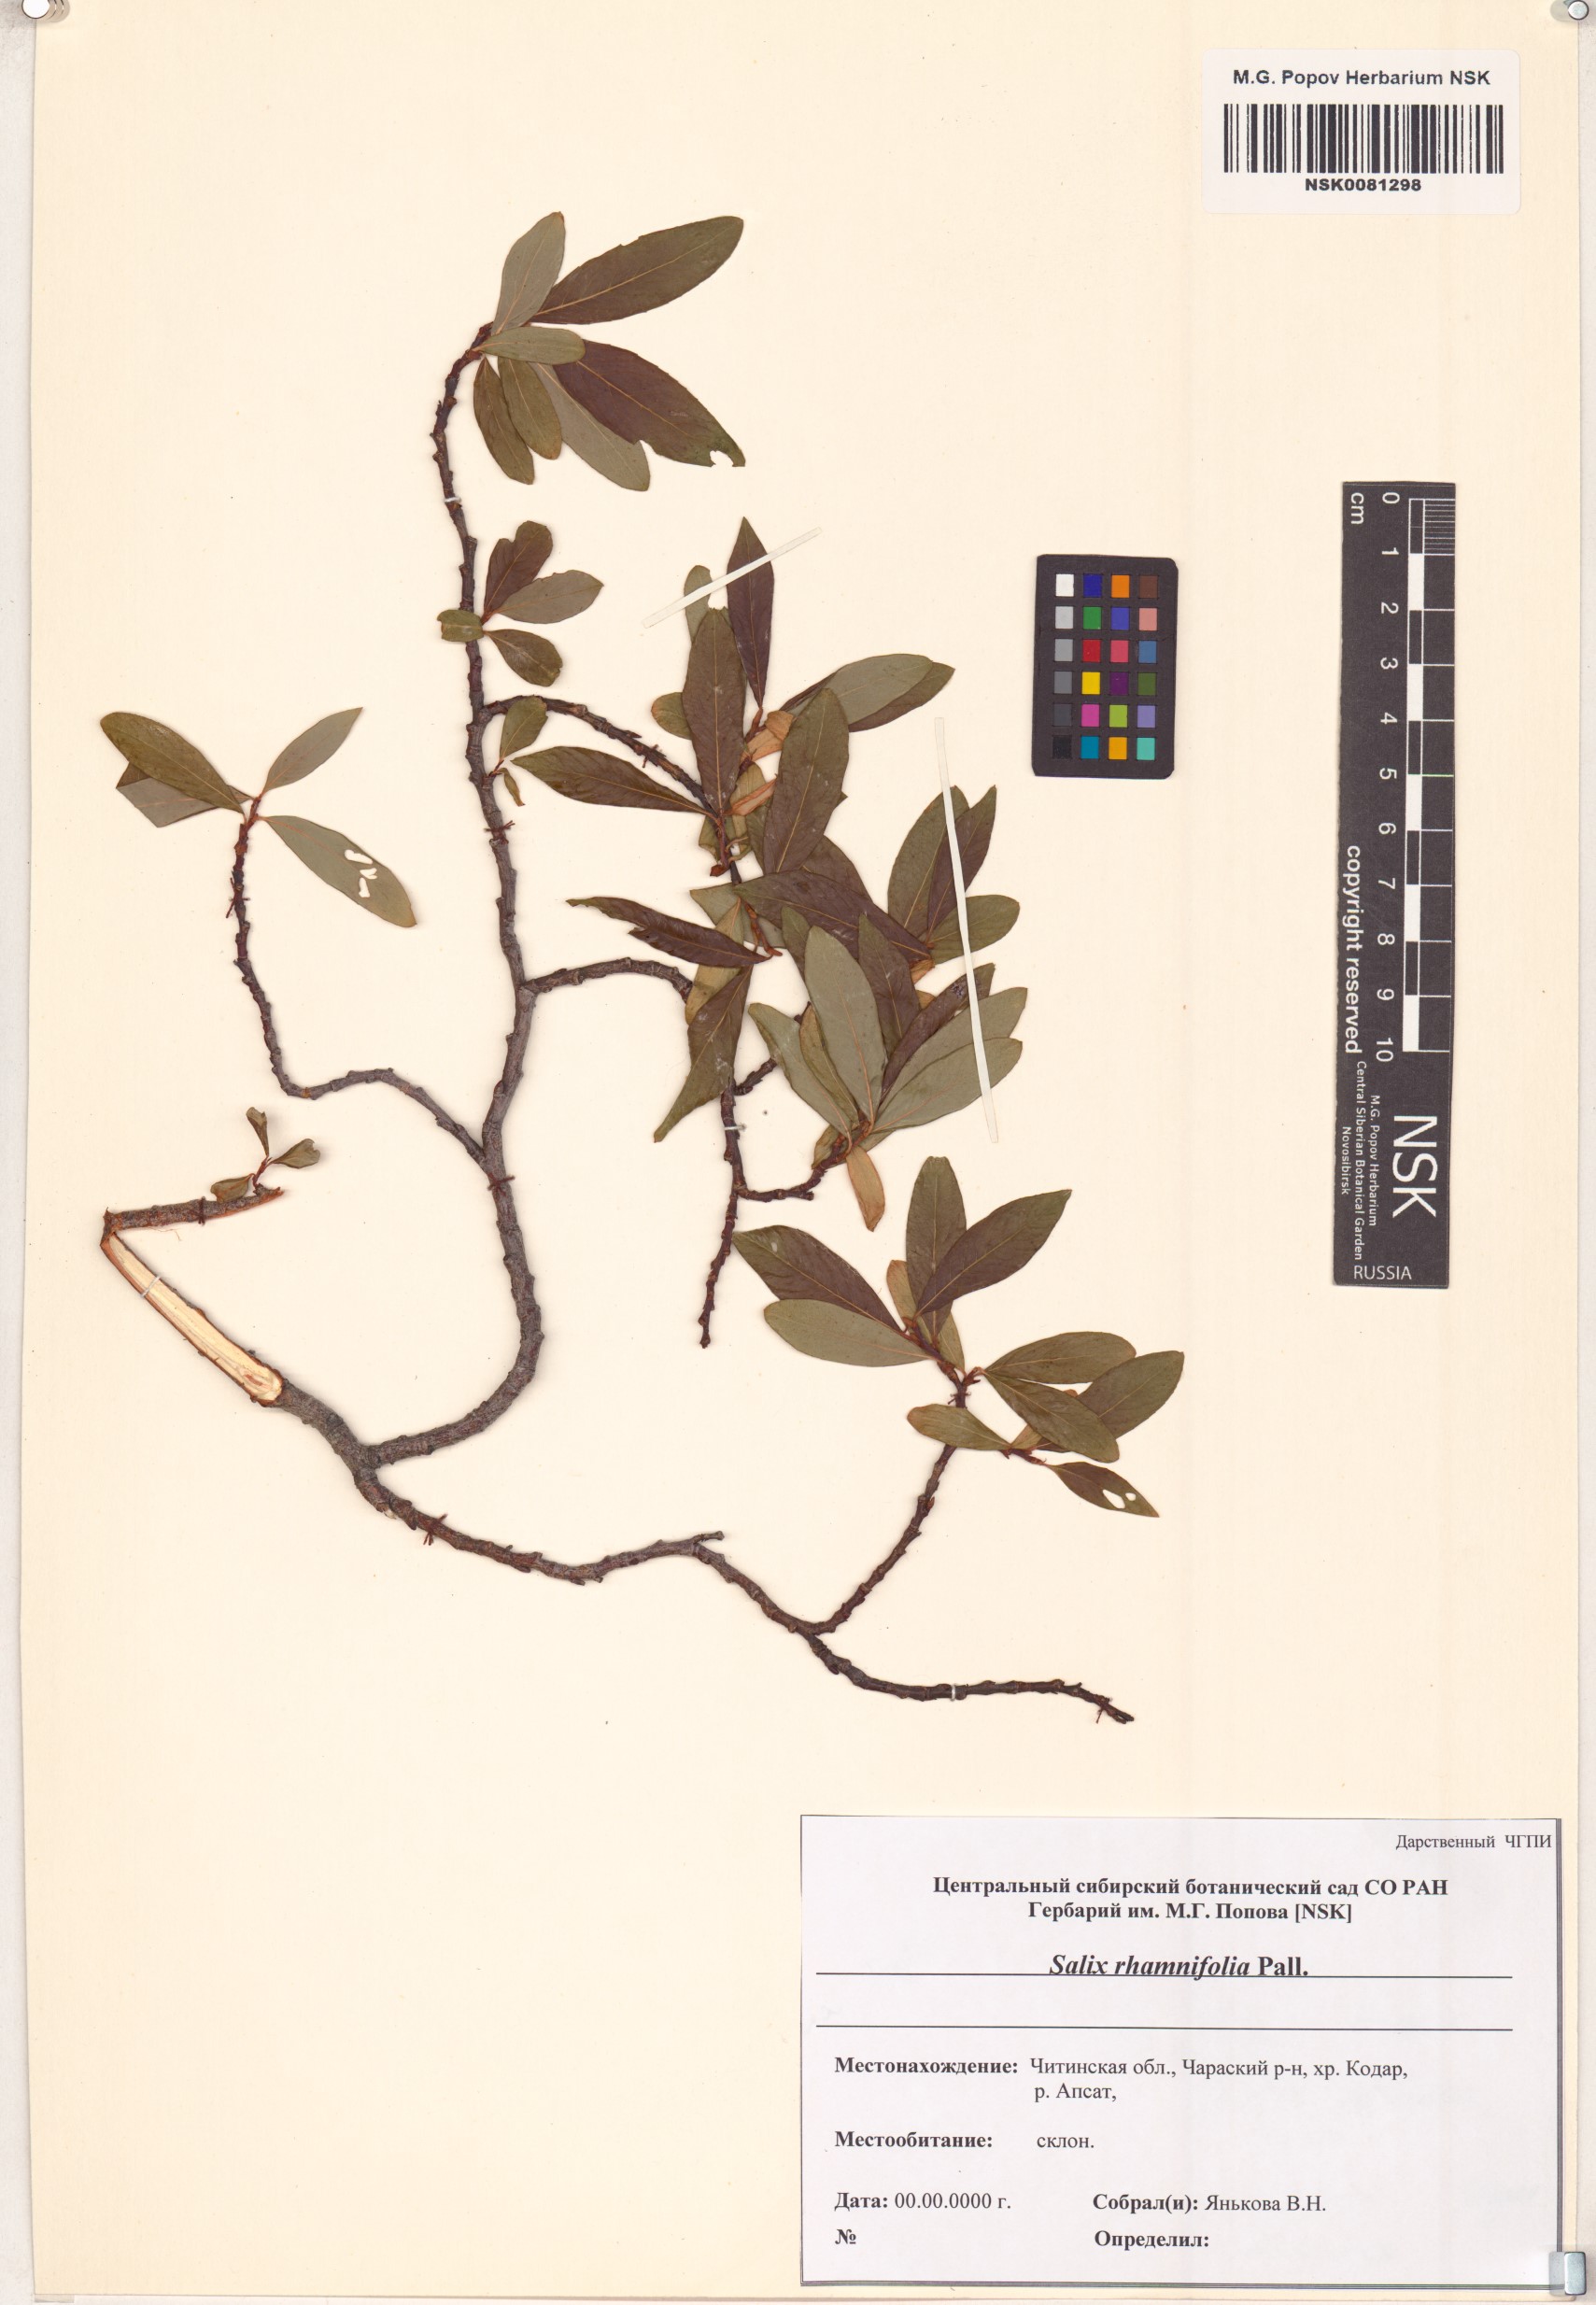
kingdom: Plantae
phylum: Tracheophyta
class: Magnoliopsida
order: Malpighiales
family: Salicaceae
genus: Salix
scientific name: Salix rhamnifolia
